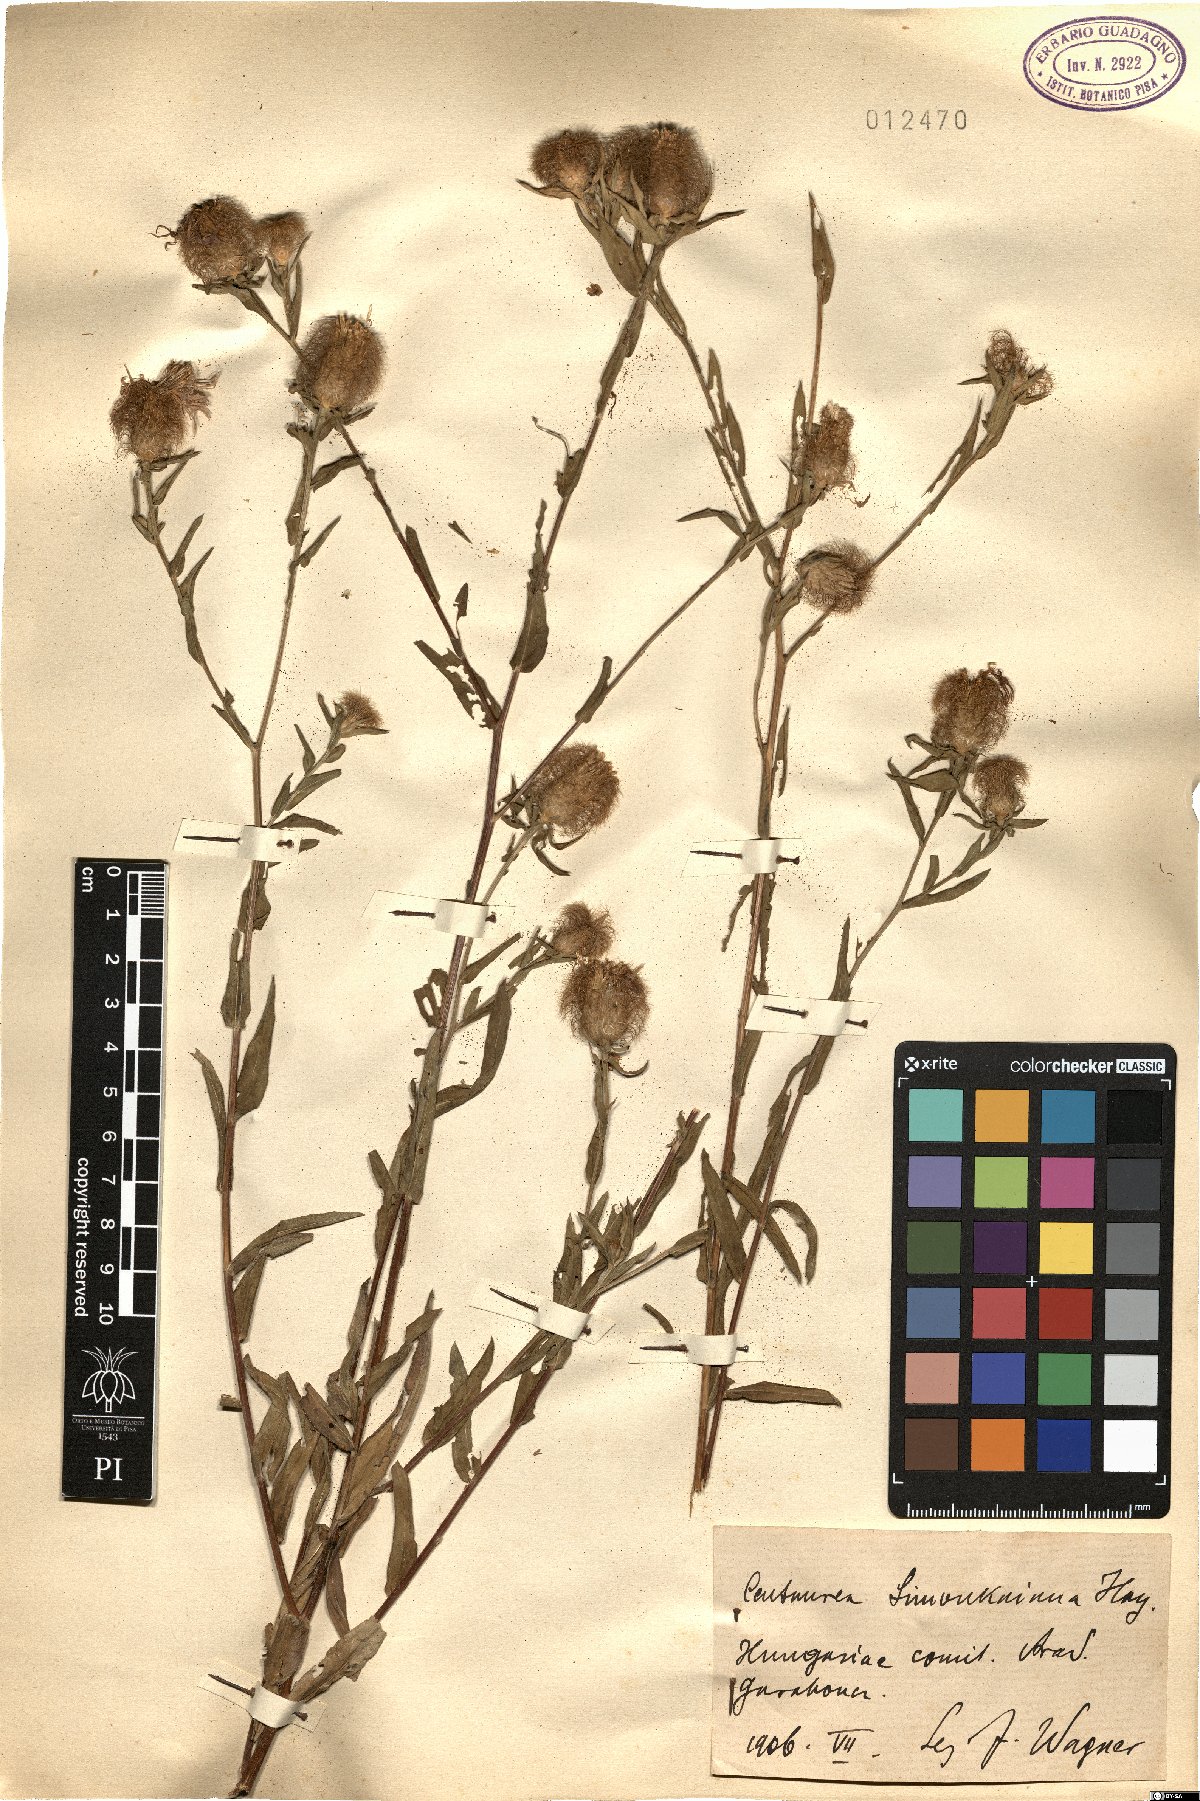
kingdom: Plantae
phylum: Tracheophyta
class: Magnoliopsida
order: Asterales
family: Asteraceae
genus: Centaurea
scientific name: Centaurea simonkaiana
